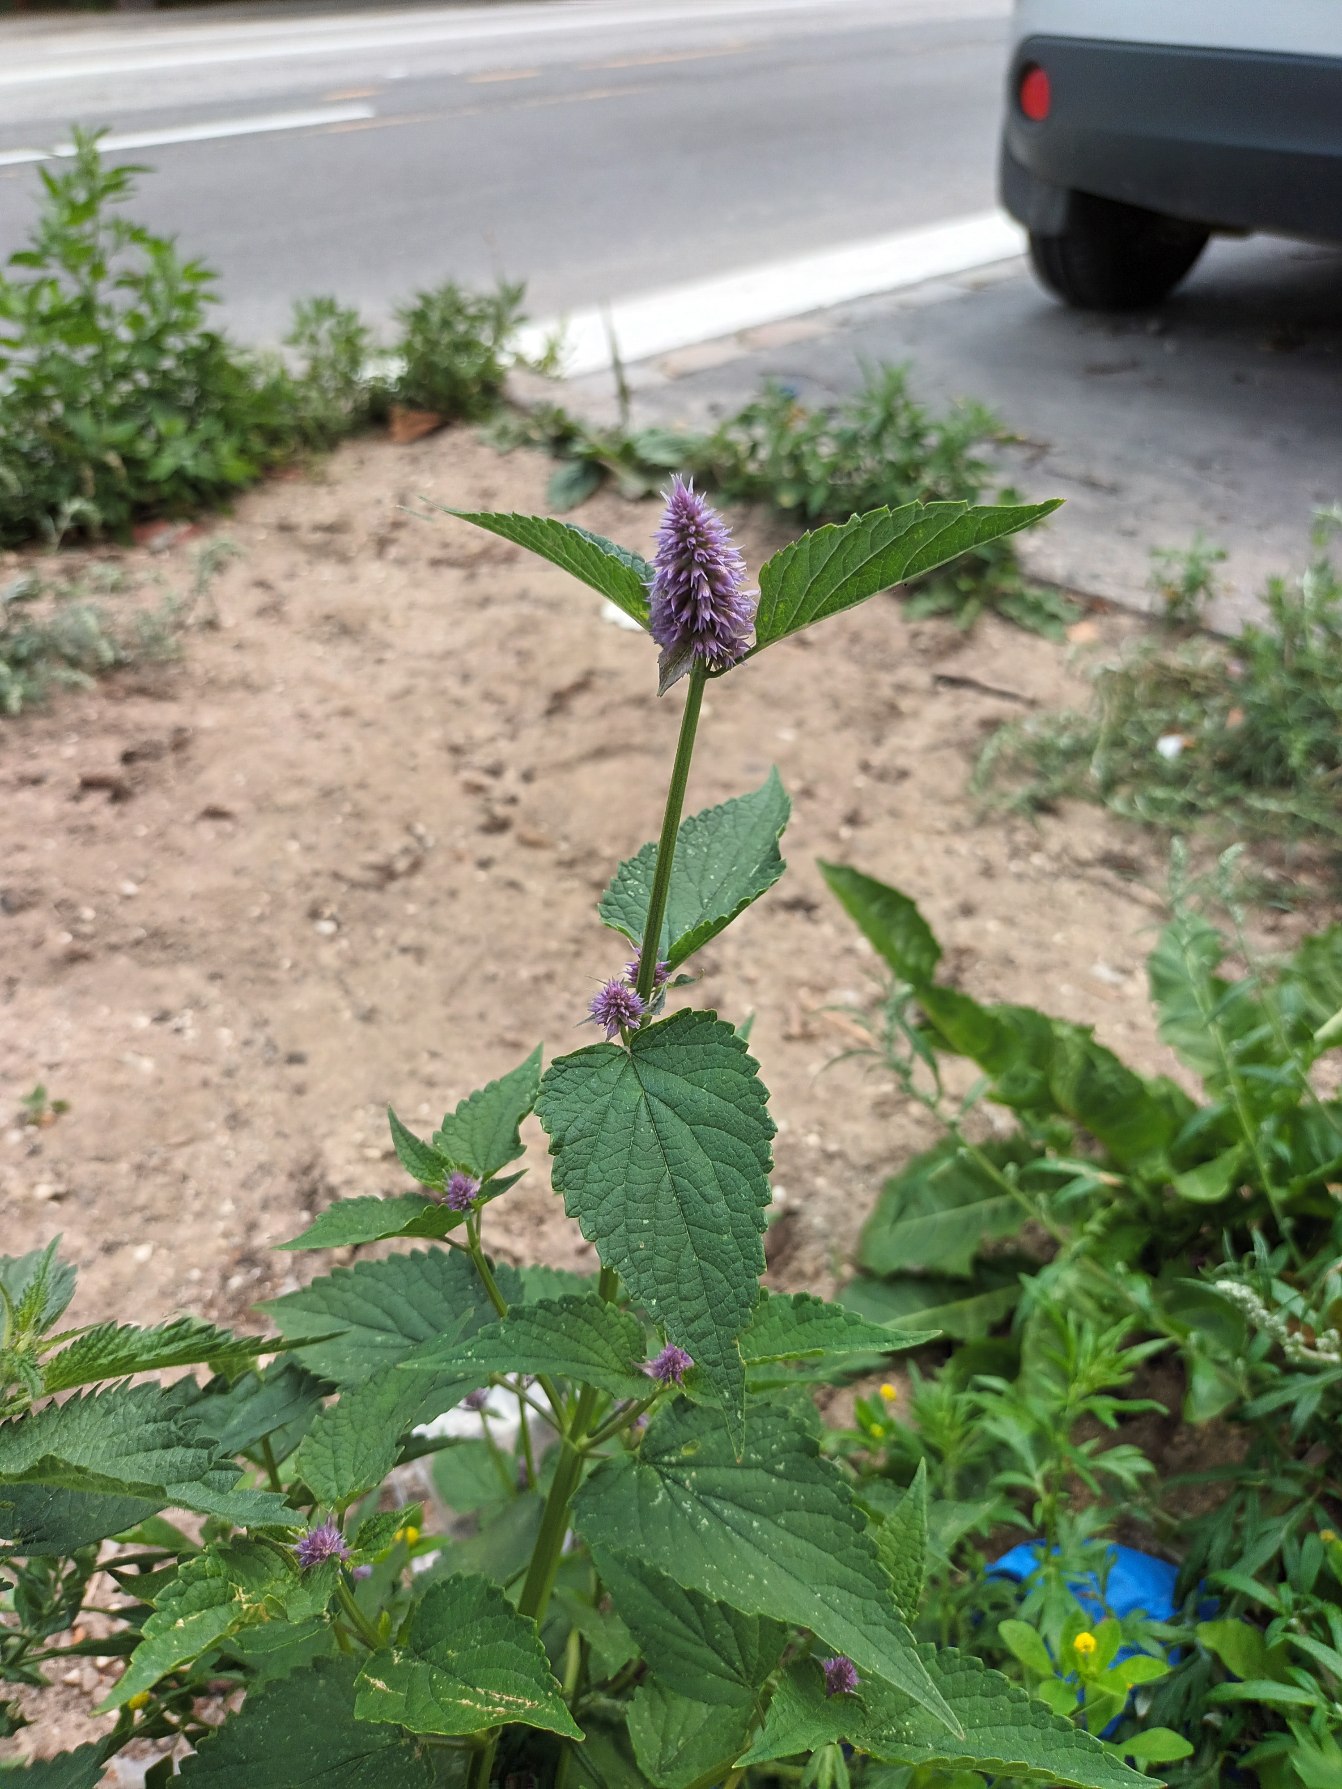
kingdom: Plantae
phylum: Tracheophyta
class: Magnoliopsida
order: Lamiales
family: Lamiaceae
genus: Agastache
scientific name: Agastache rugosa
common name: Koreansk anisisop
